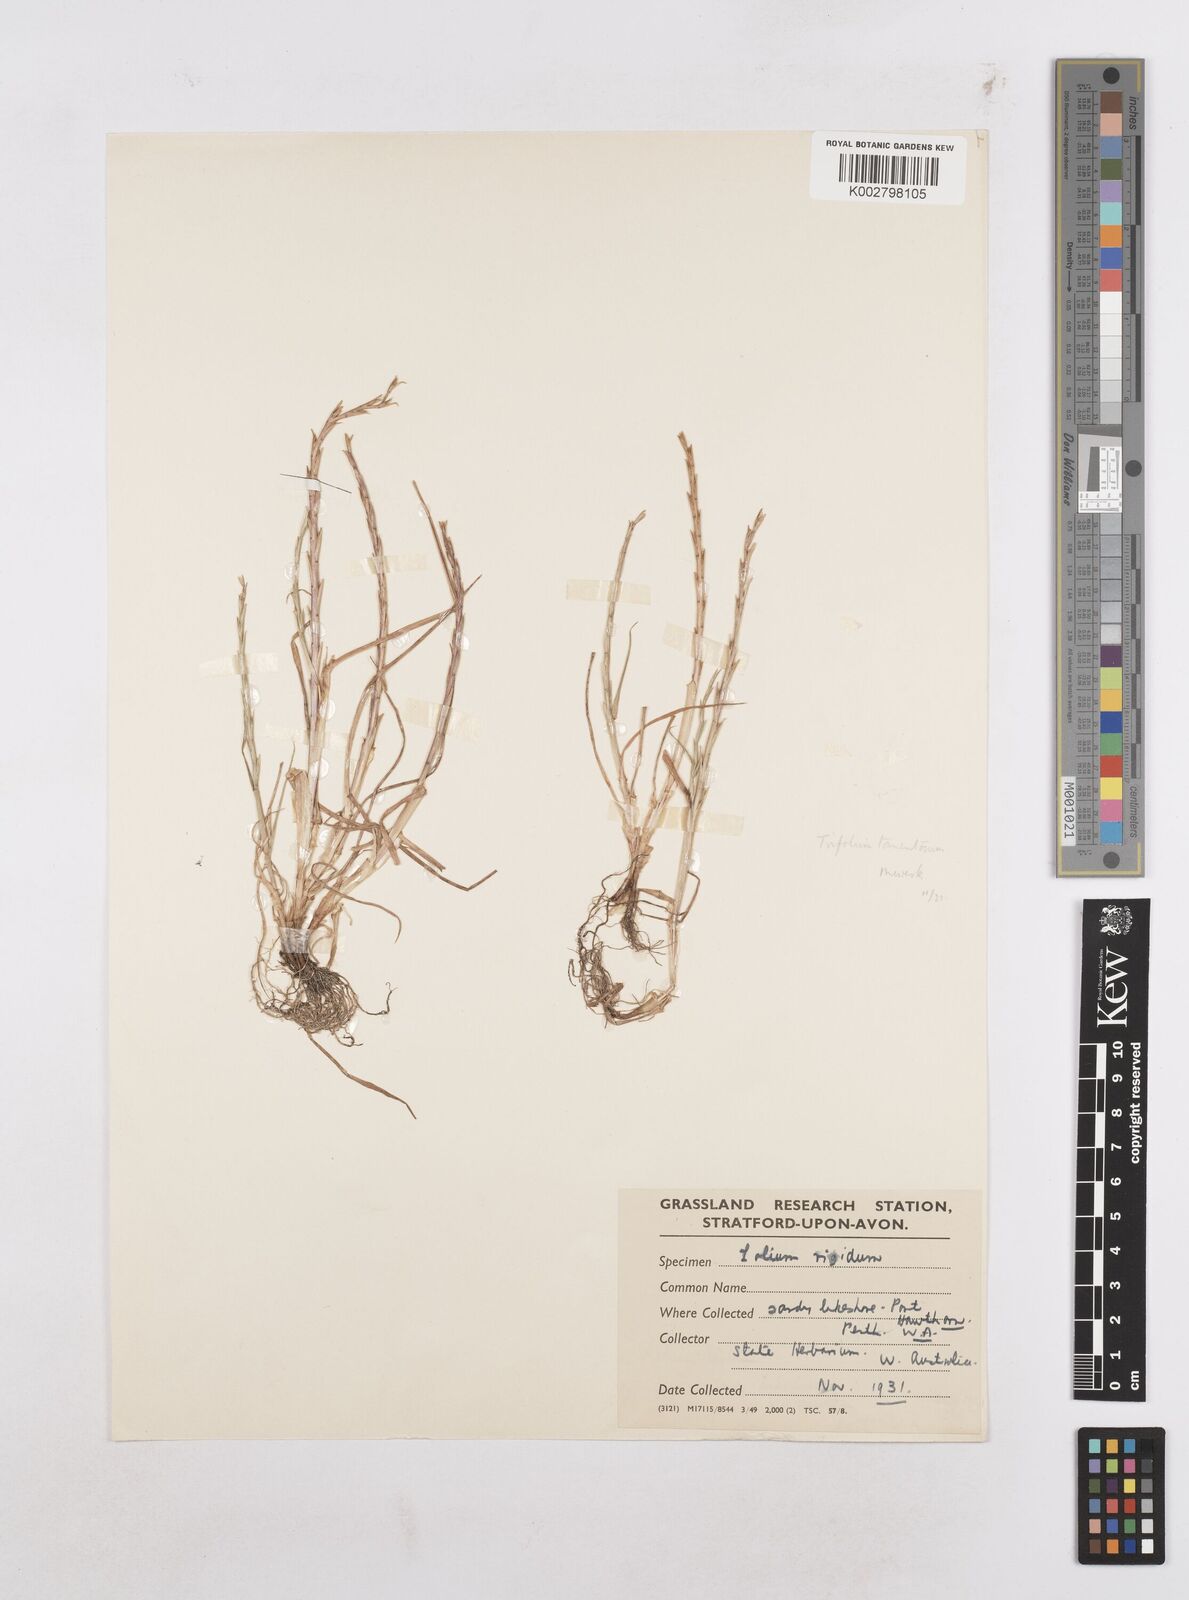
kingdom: Plantae
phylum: Tracheophyta
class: Liliopsida
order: Poales
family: Poaceae
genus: Lolium
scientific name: Lolium
